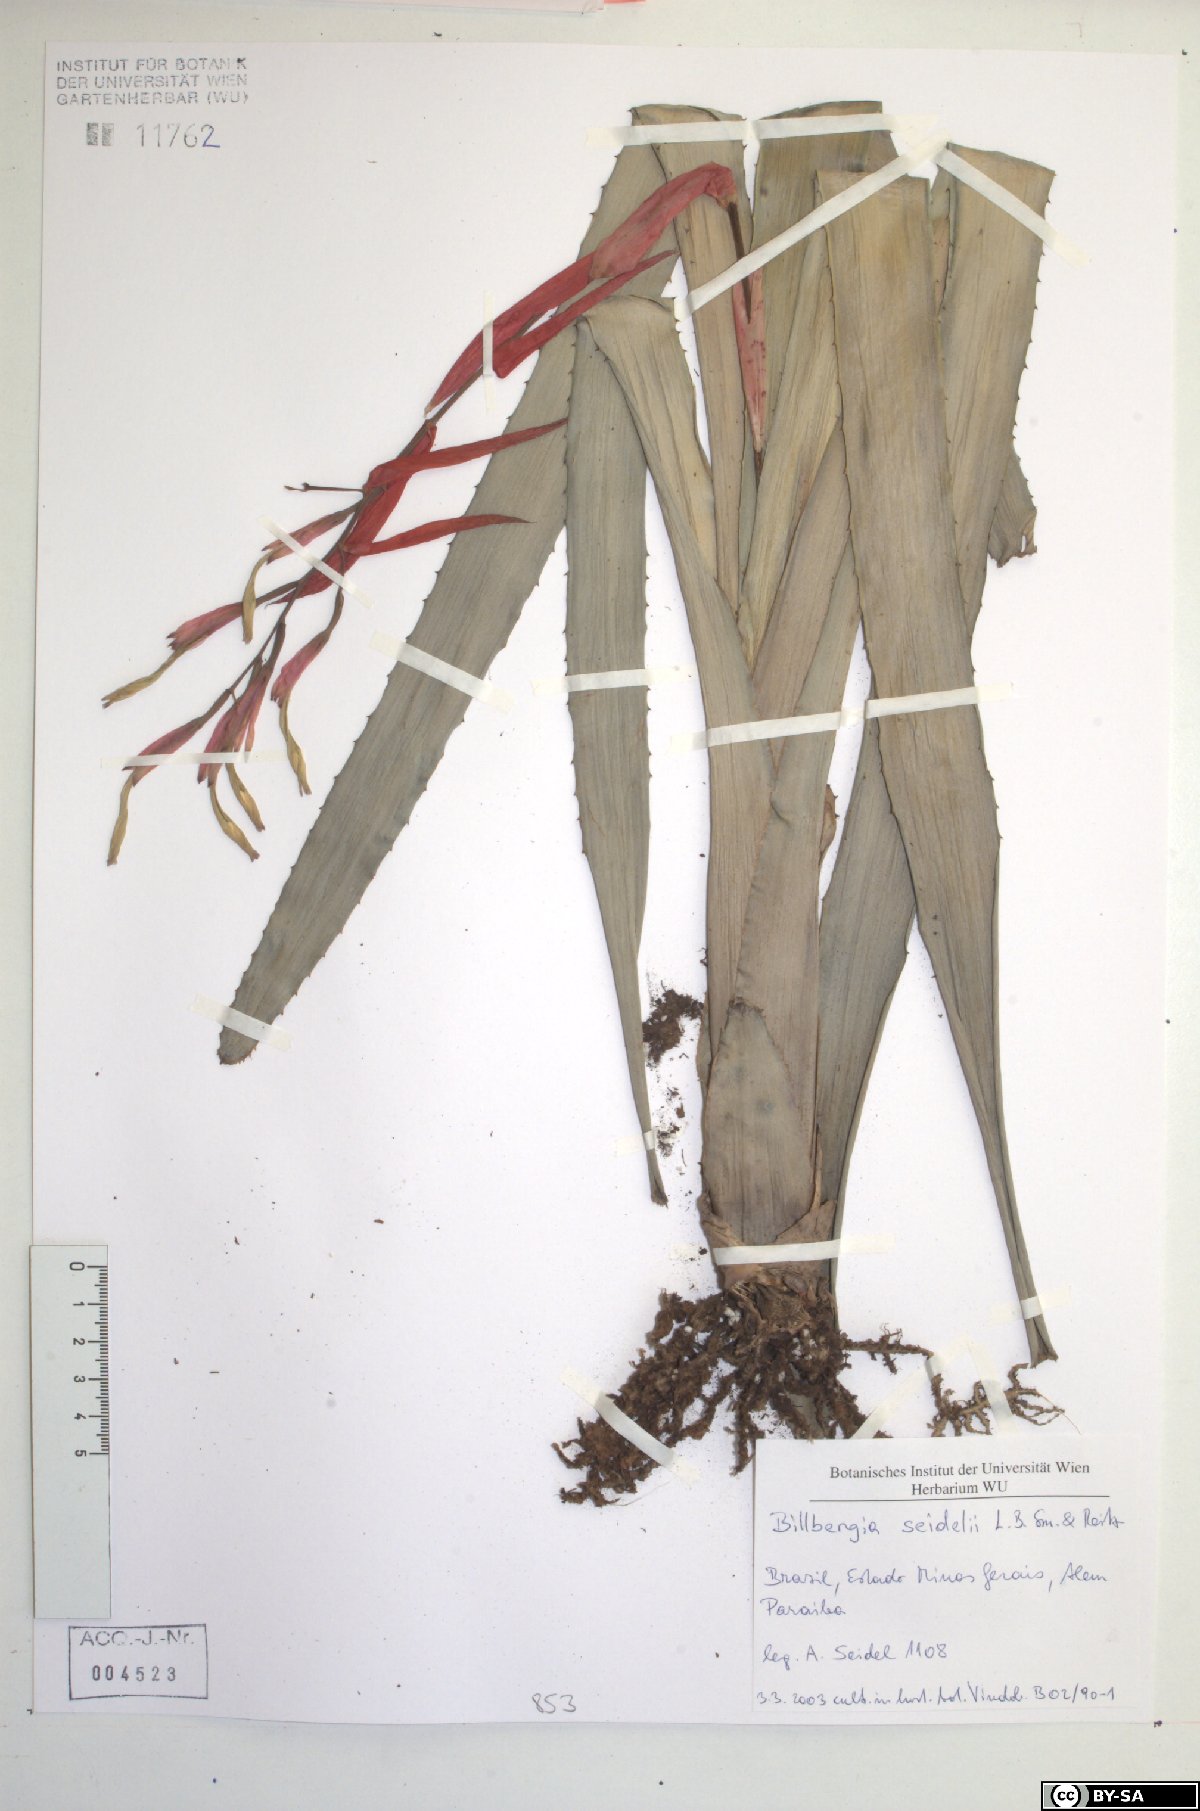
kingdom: Plantae
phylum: Tracheophyta
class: Liliopsida
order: Poales
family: Bromeliaceae
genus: Billbergia
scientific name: Billbergia seidelii
